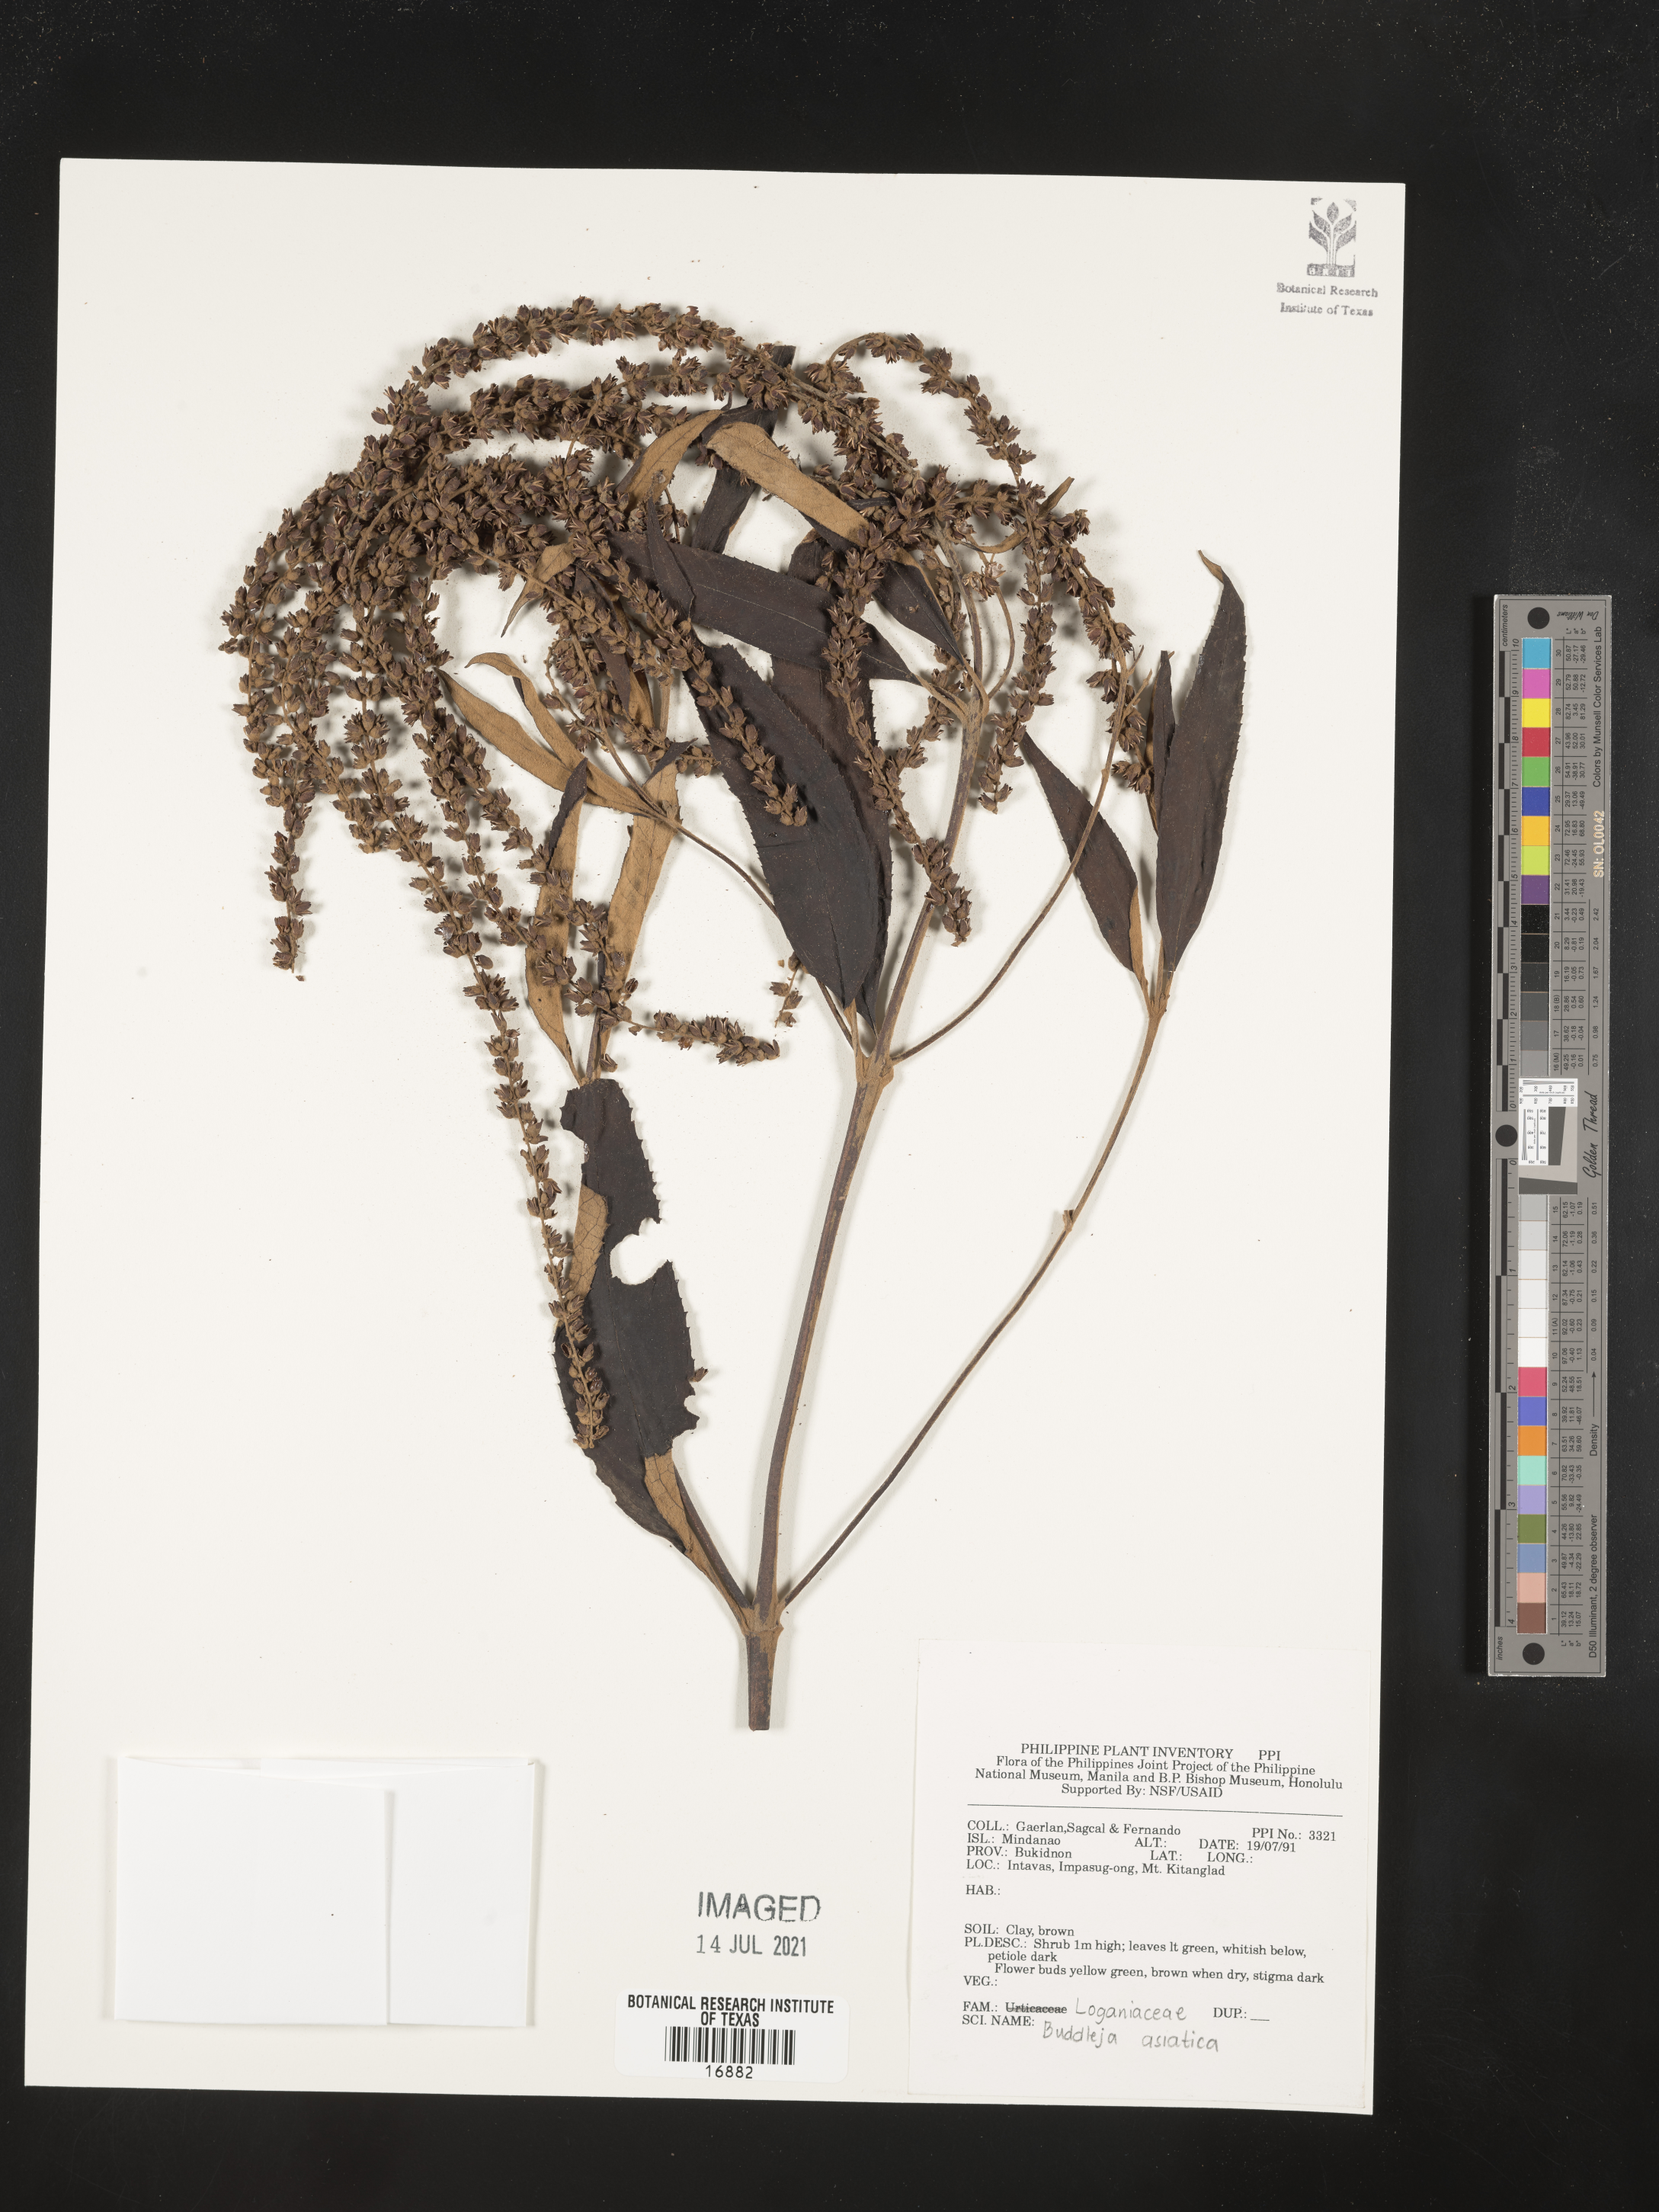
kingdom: Plantae
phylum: Tracheophyta
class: Magnoliopsida
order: Lamiales
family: Scrophulariaceae
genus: Buddleja
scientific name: Buddleja asiatica
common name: Dog tail
